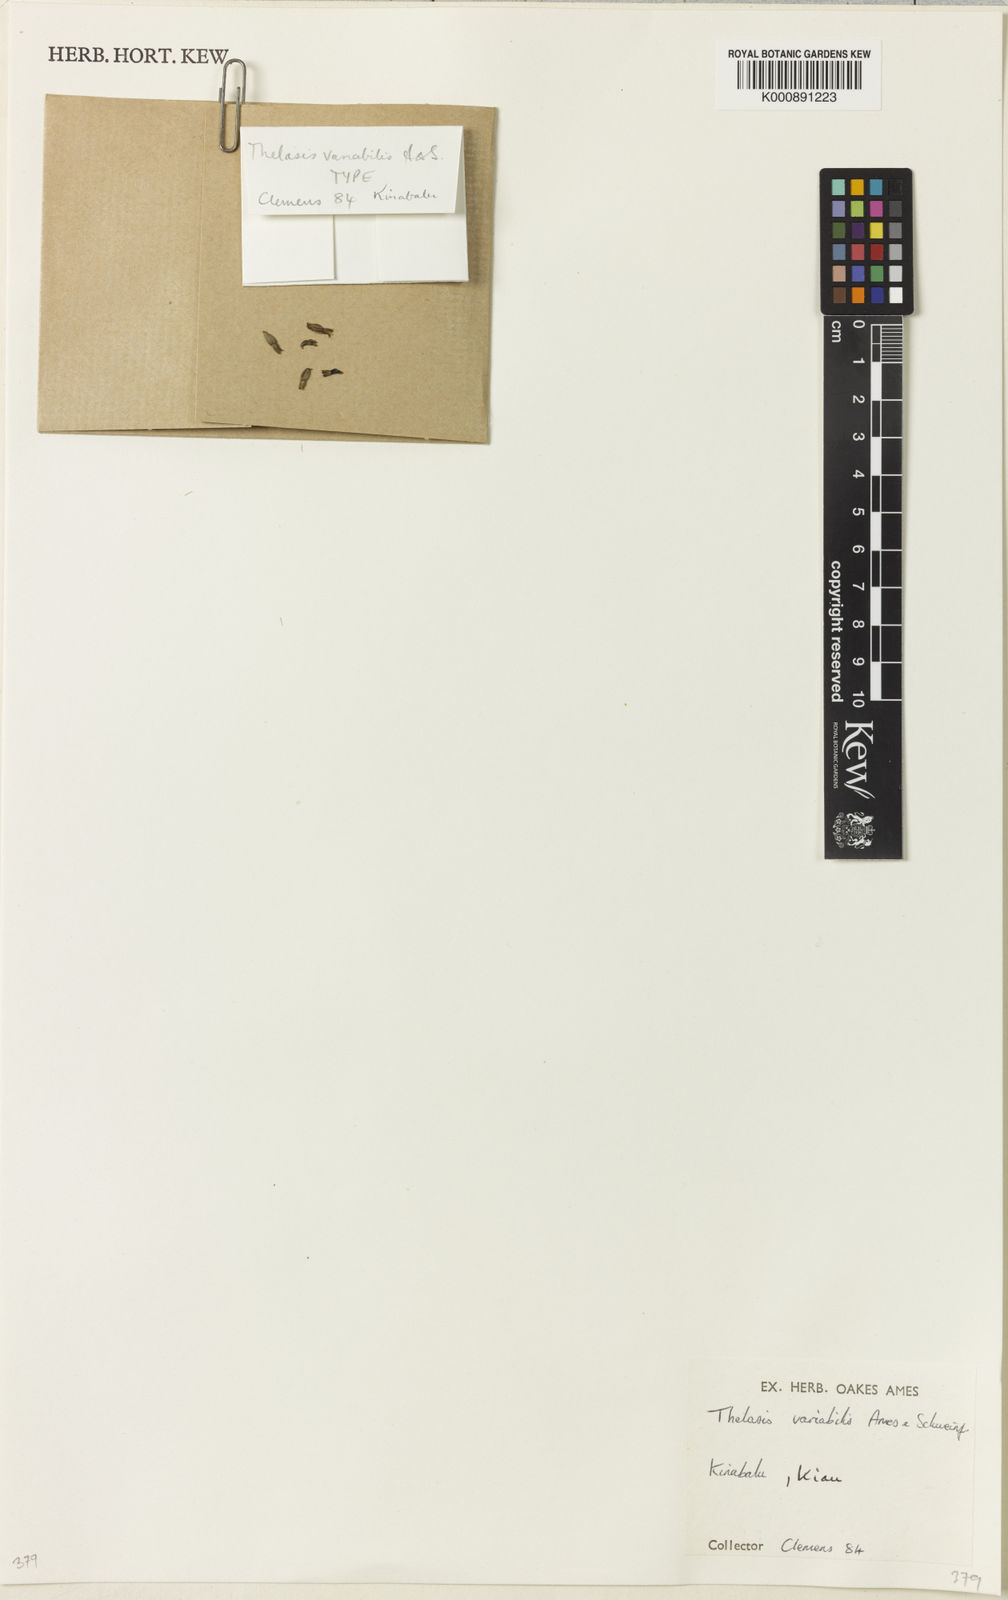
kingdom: Plantae
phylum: Tracheophyta
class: Liliopsida
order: Asparagales
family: Orchidaceae
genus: Thelasis
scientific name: Thelasis variabilis
